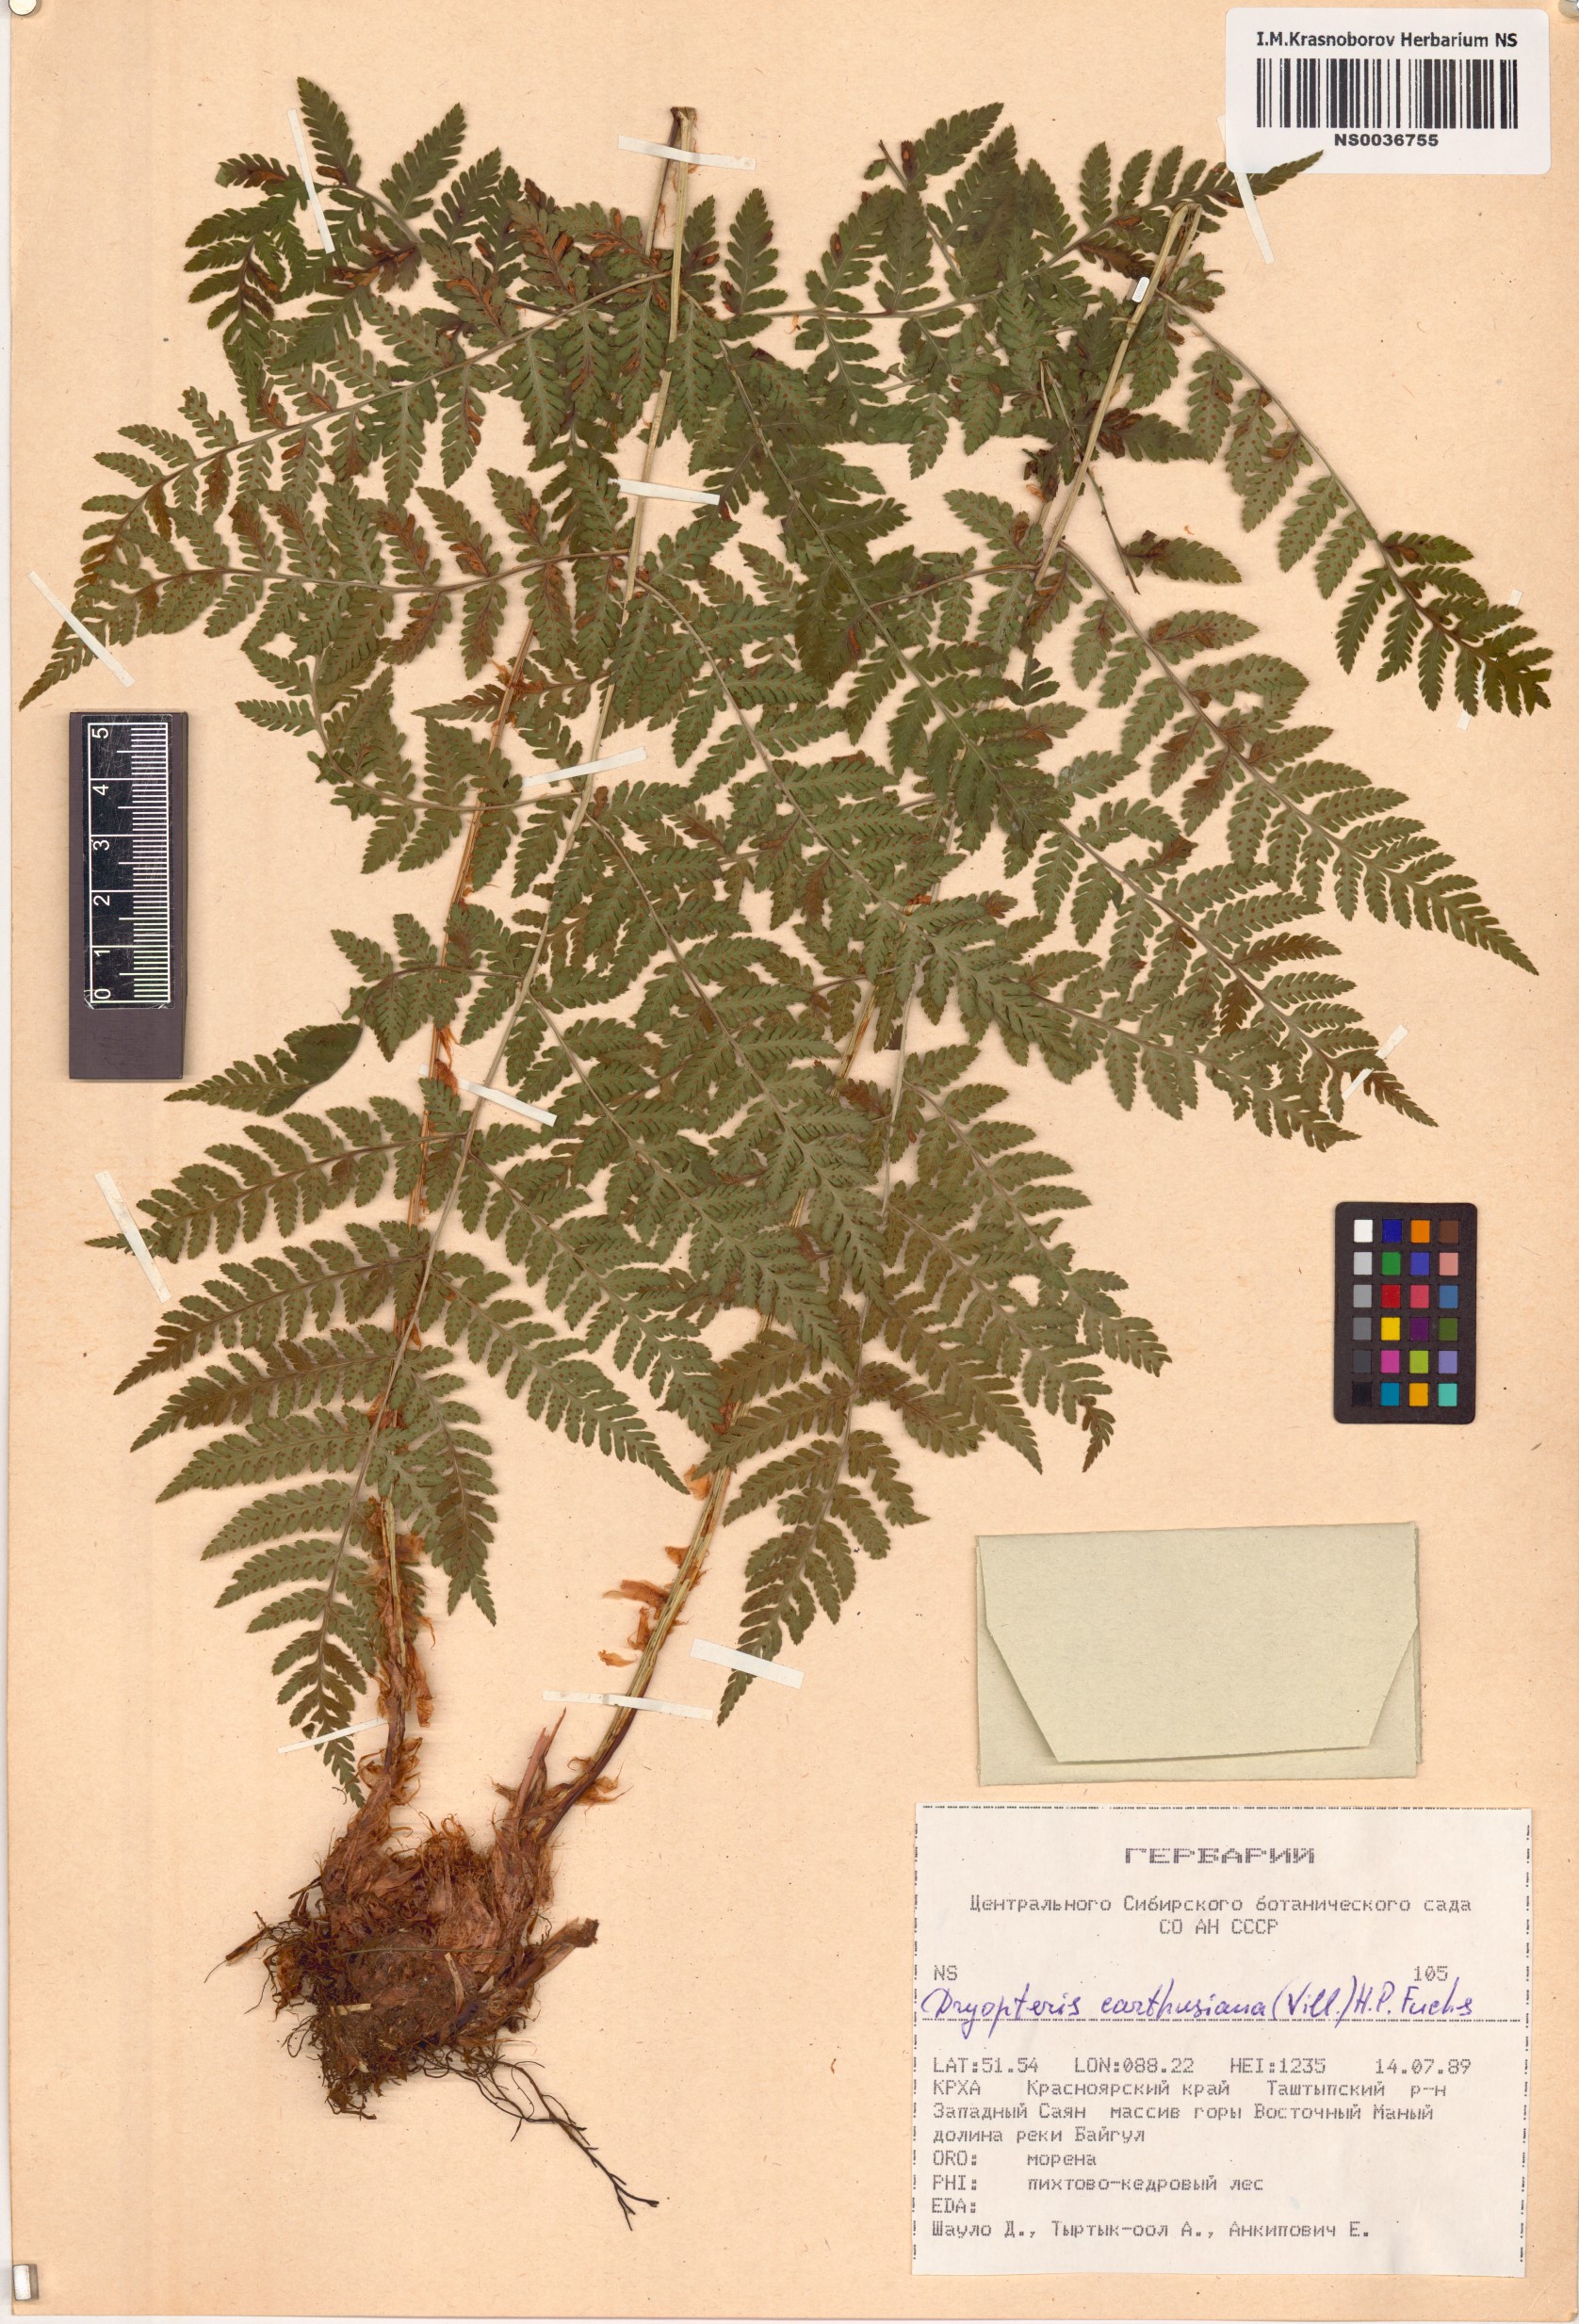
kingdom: Plantae
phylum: Tracheophyta
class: Polypodiopsida
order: Polypodiales
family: Dryopteridaceae
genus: Dryopteris
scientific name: Dryopteris carthusiana
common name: Narrow buckler-fern
